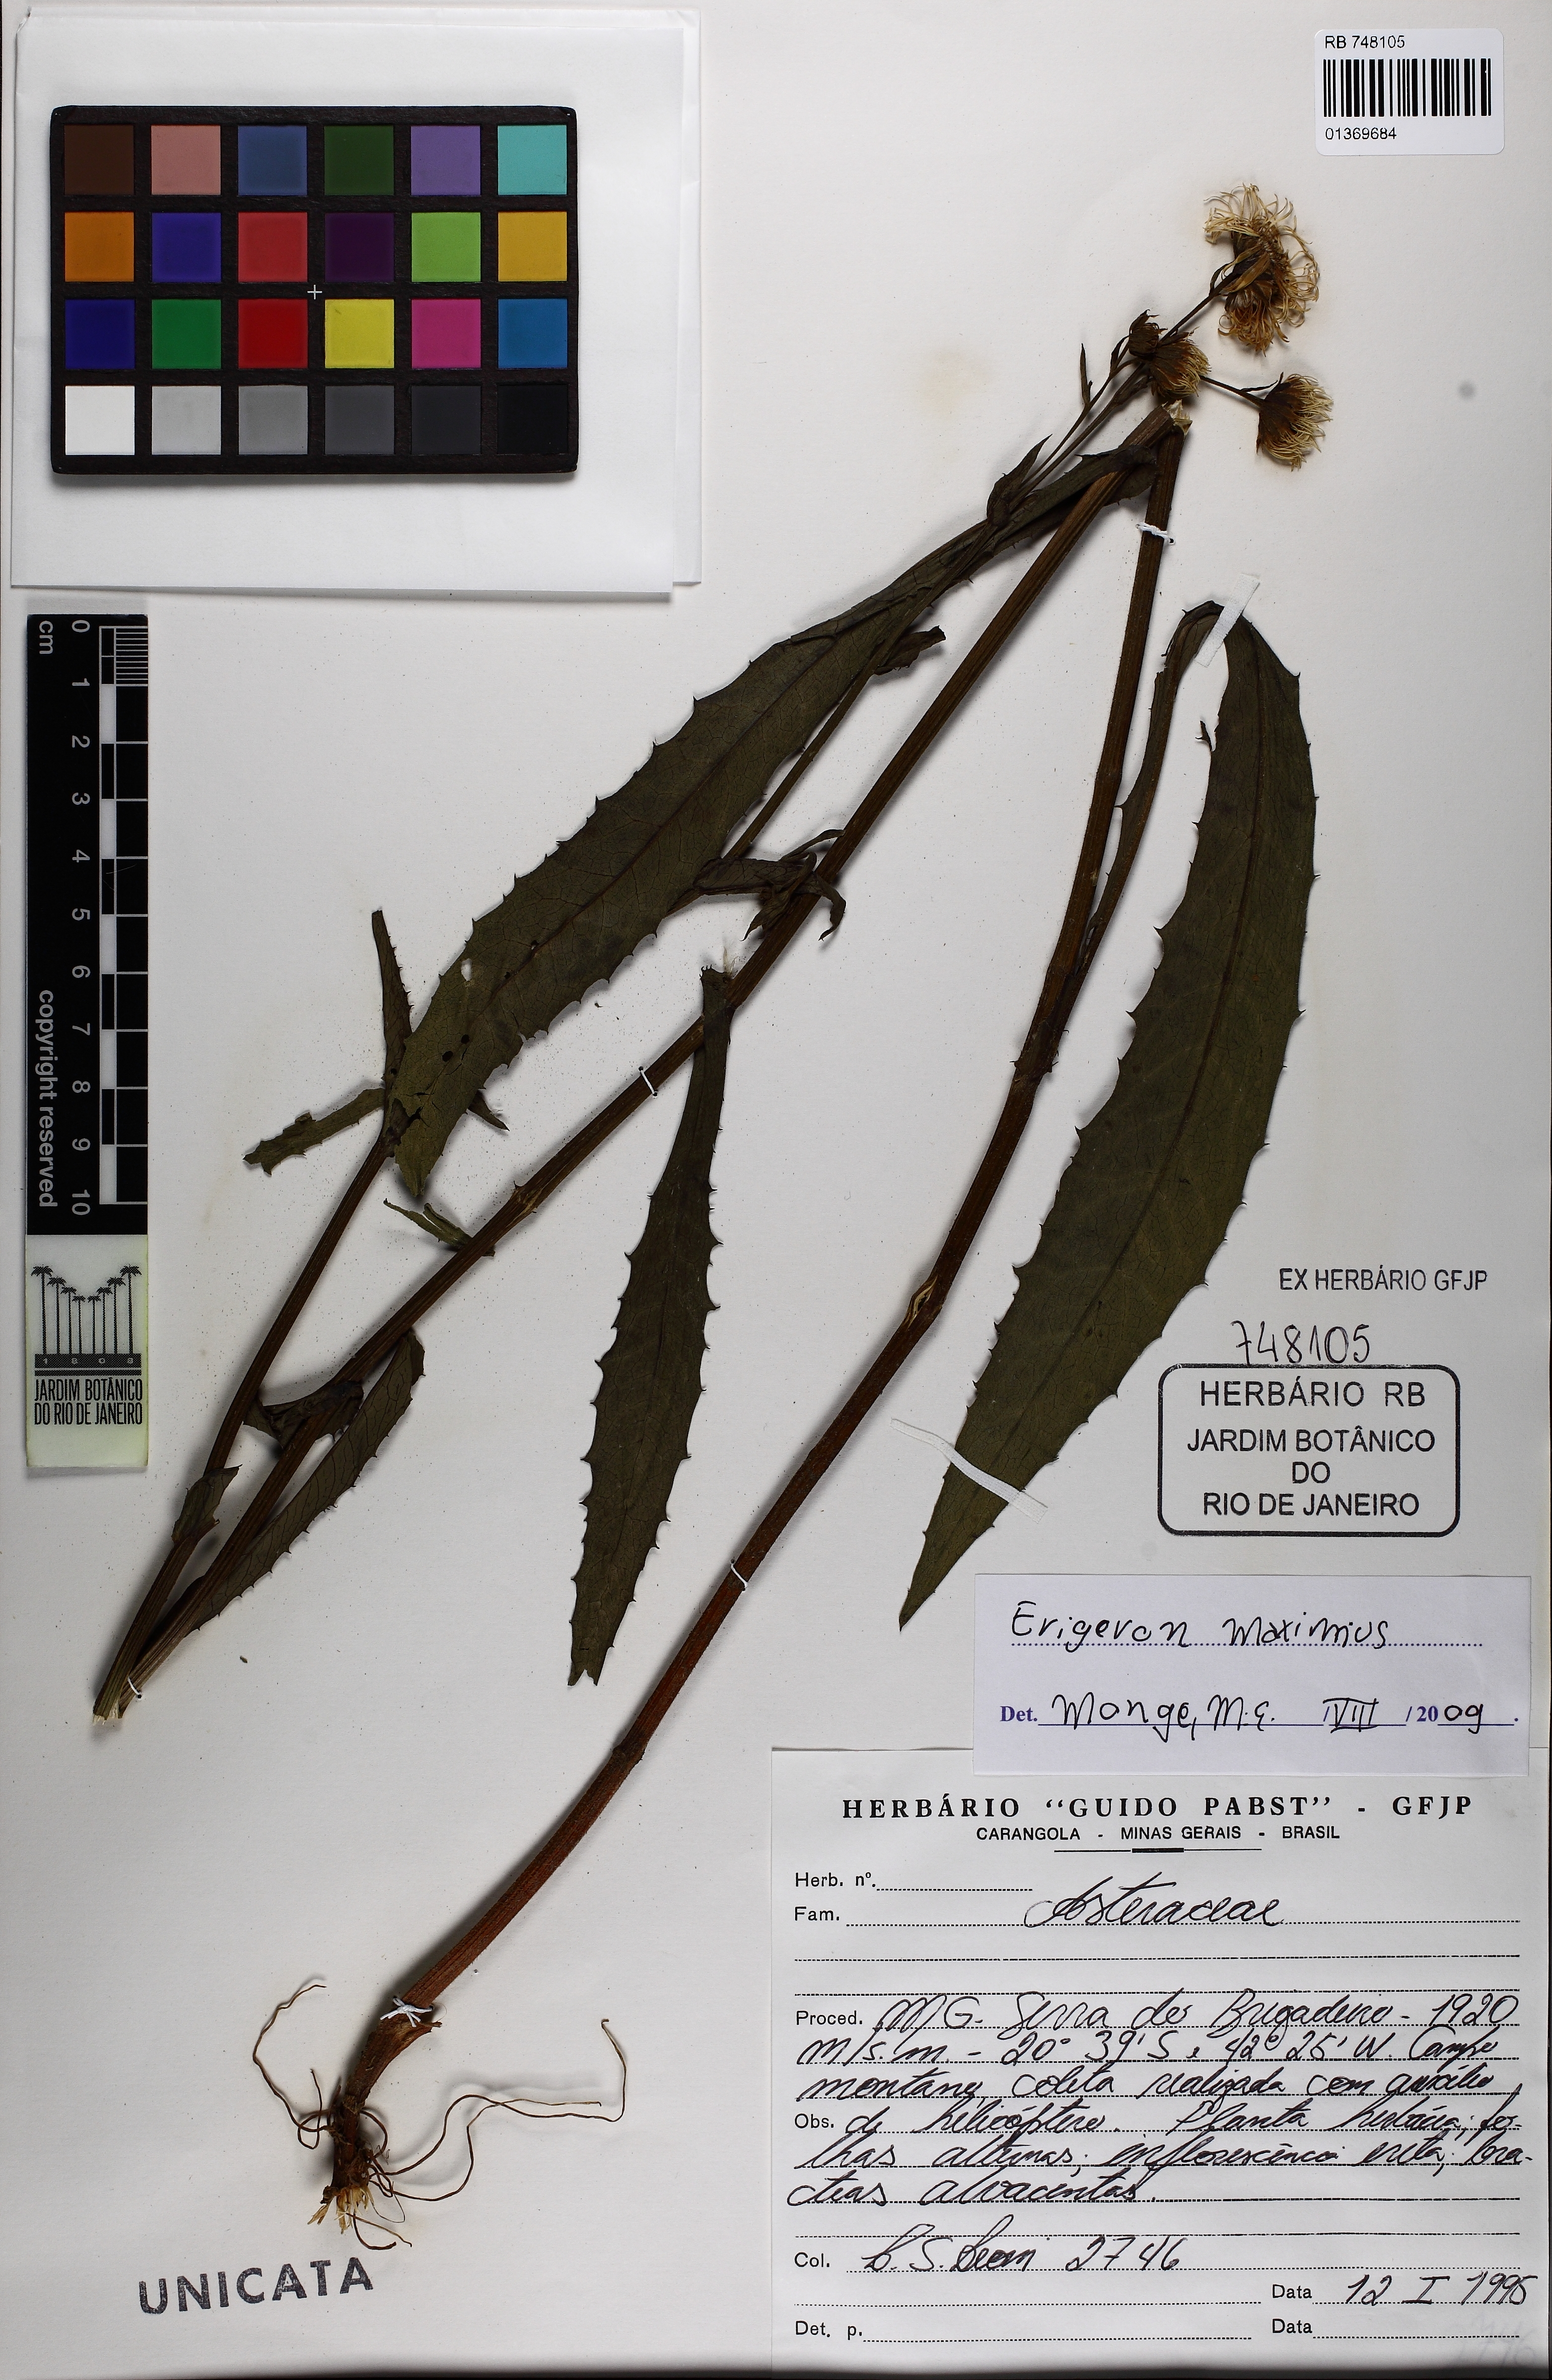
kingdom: Plantae
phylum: Tracheophyta
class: Magnoliopsida
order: Asterales
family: Asteraceae
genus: Leptostelma
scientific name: Leptostelma maxima
